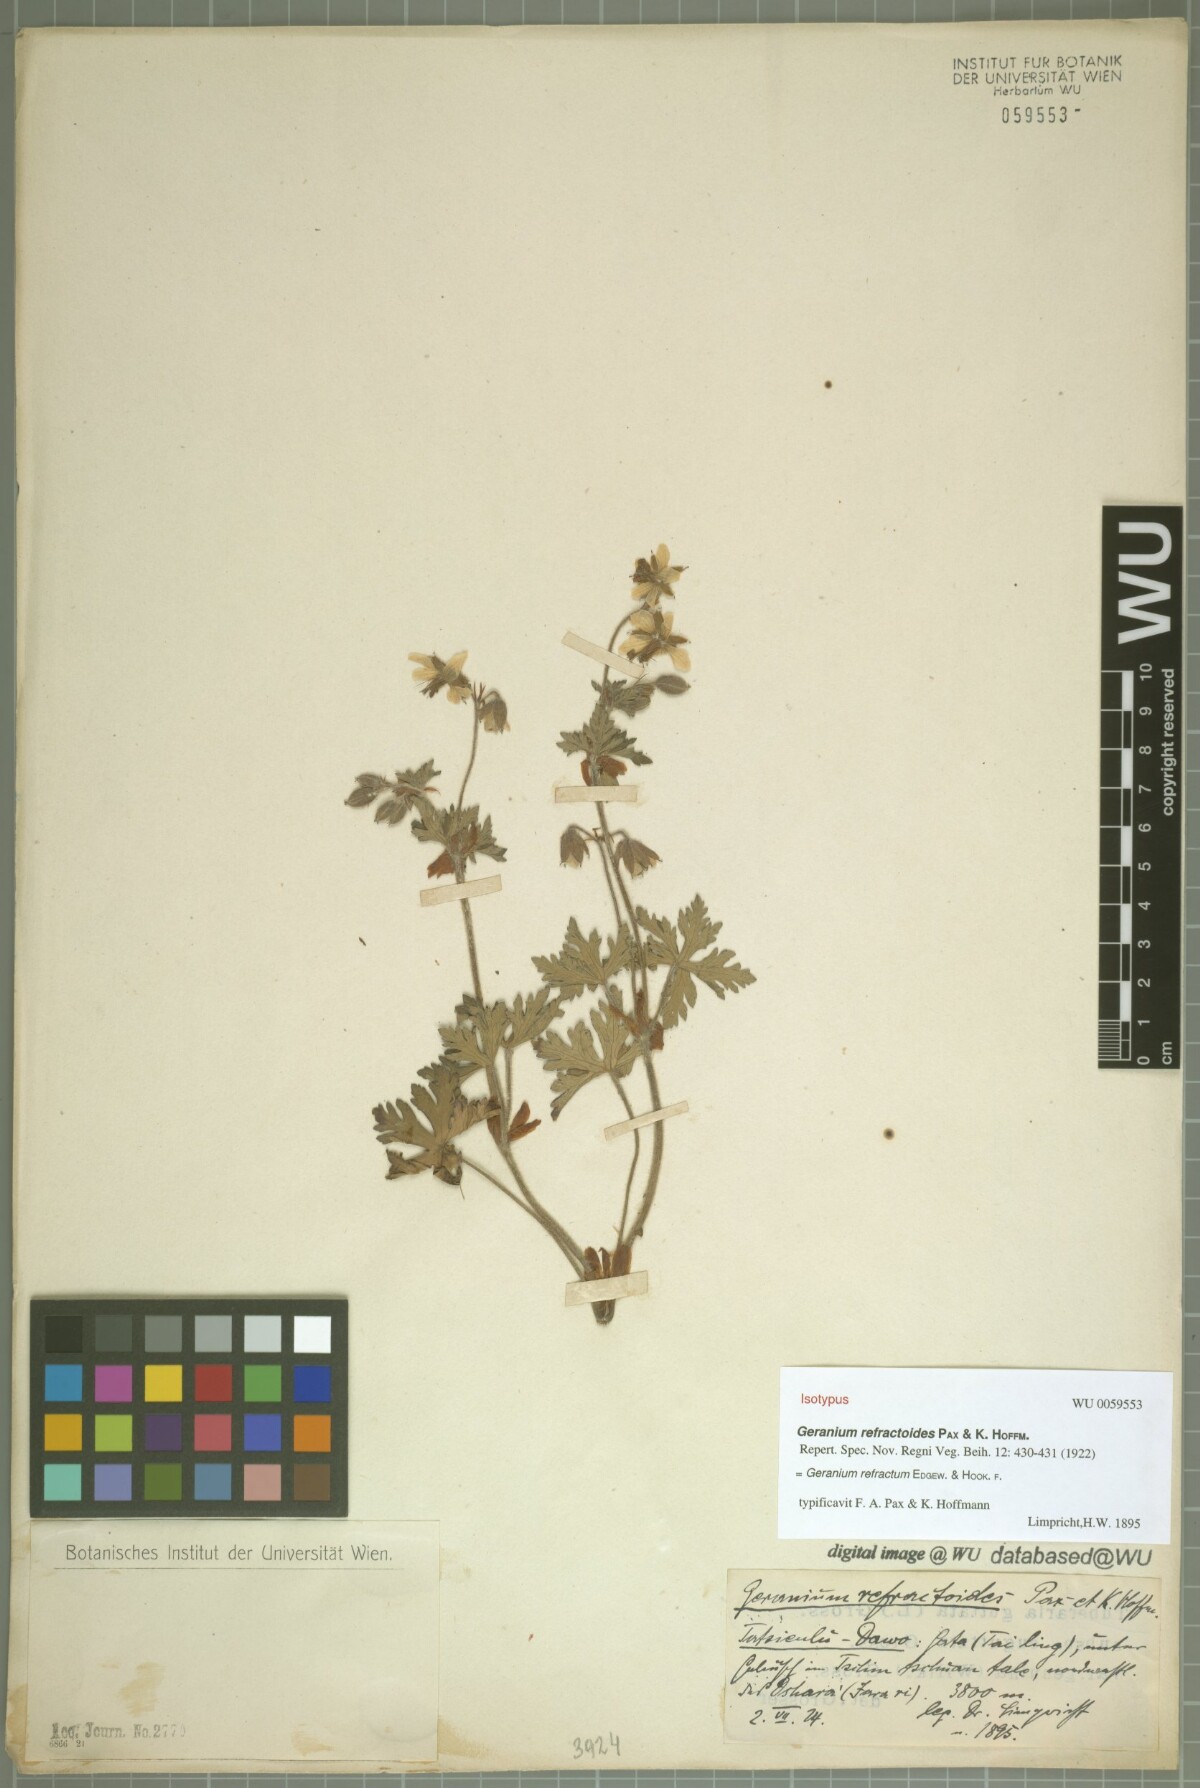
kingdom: Plantae
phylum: Tracheophyta
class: Magnoliopsida
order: Geraniales
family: Geraniaceae
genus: Geranium
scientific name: Geranium refractum
